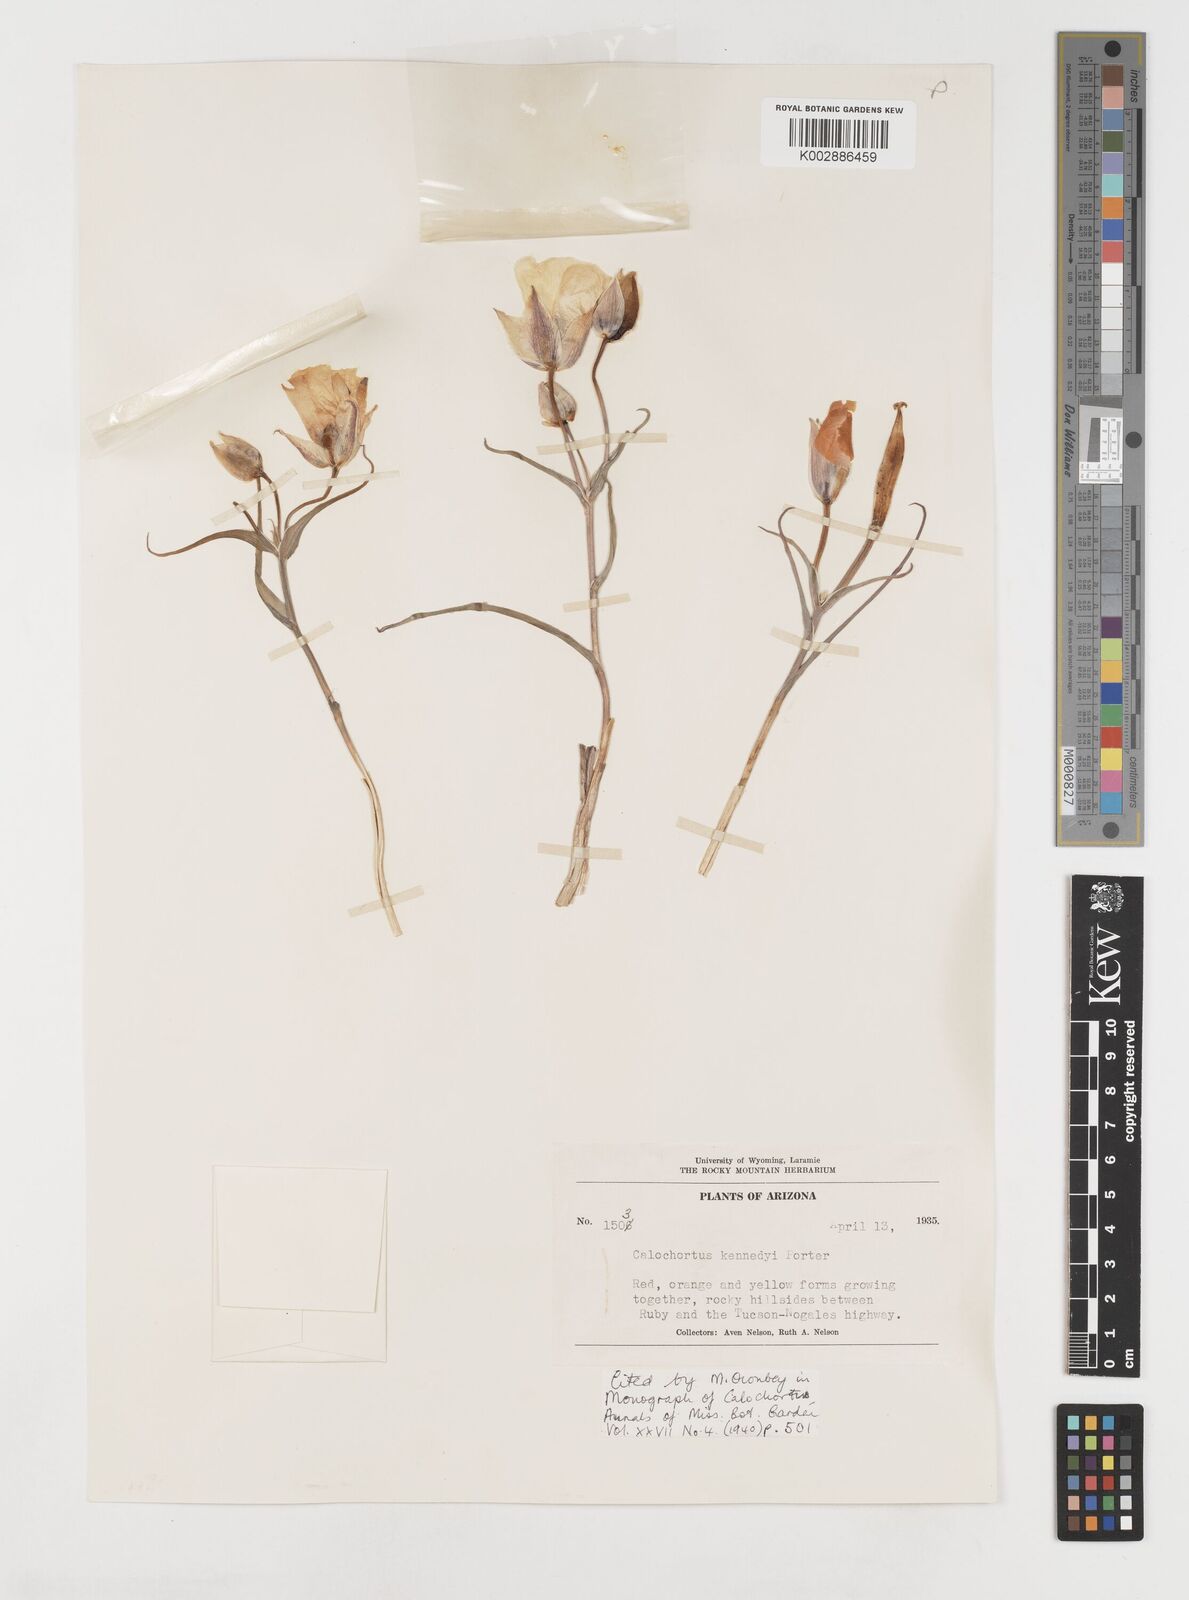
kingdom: Plantae
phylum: Tracheophyta
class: Liliopsida
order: Liliales
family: Liliaceae
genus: Calochortus
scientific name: Calochortus kennedyi
